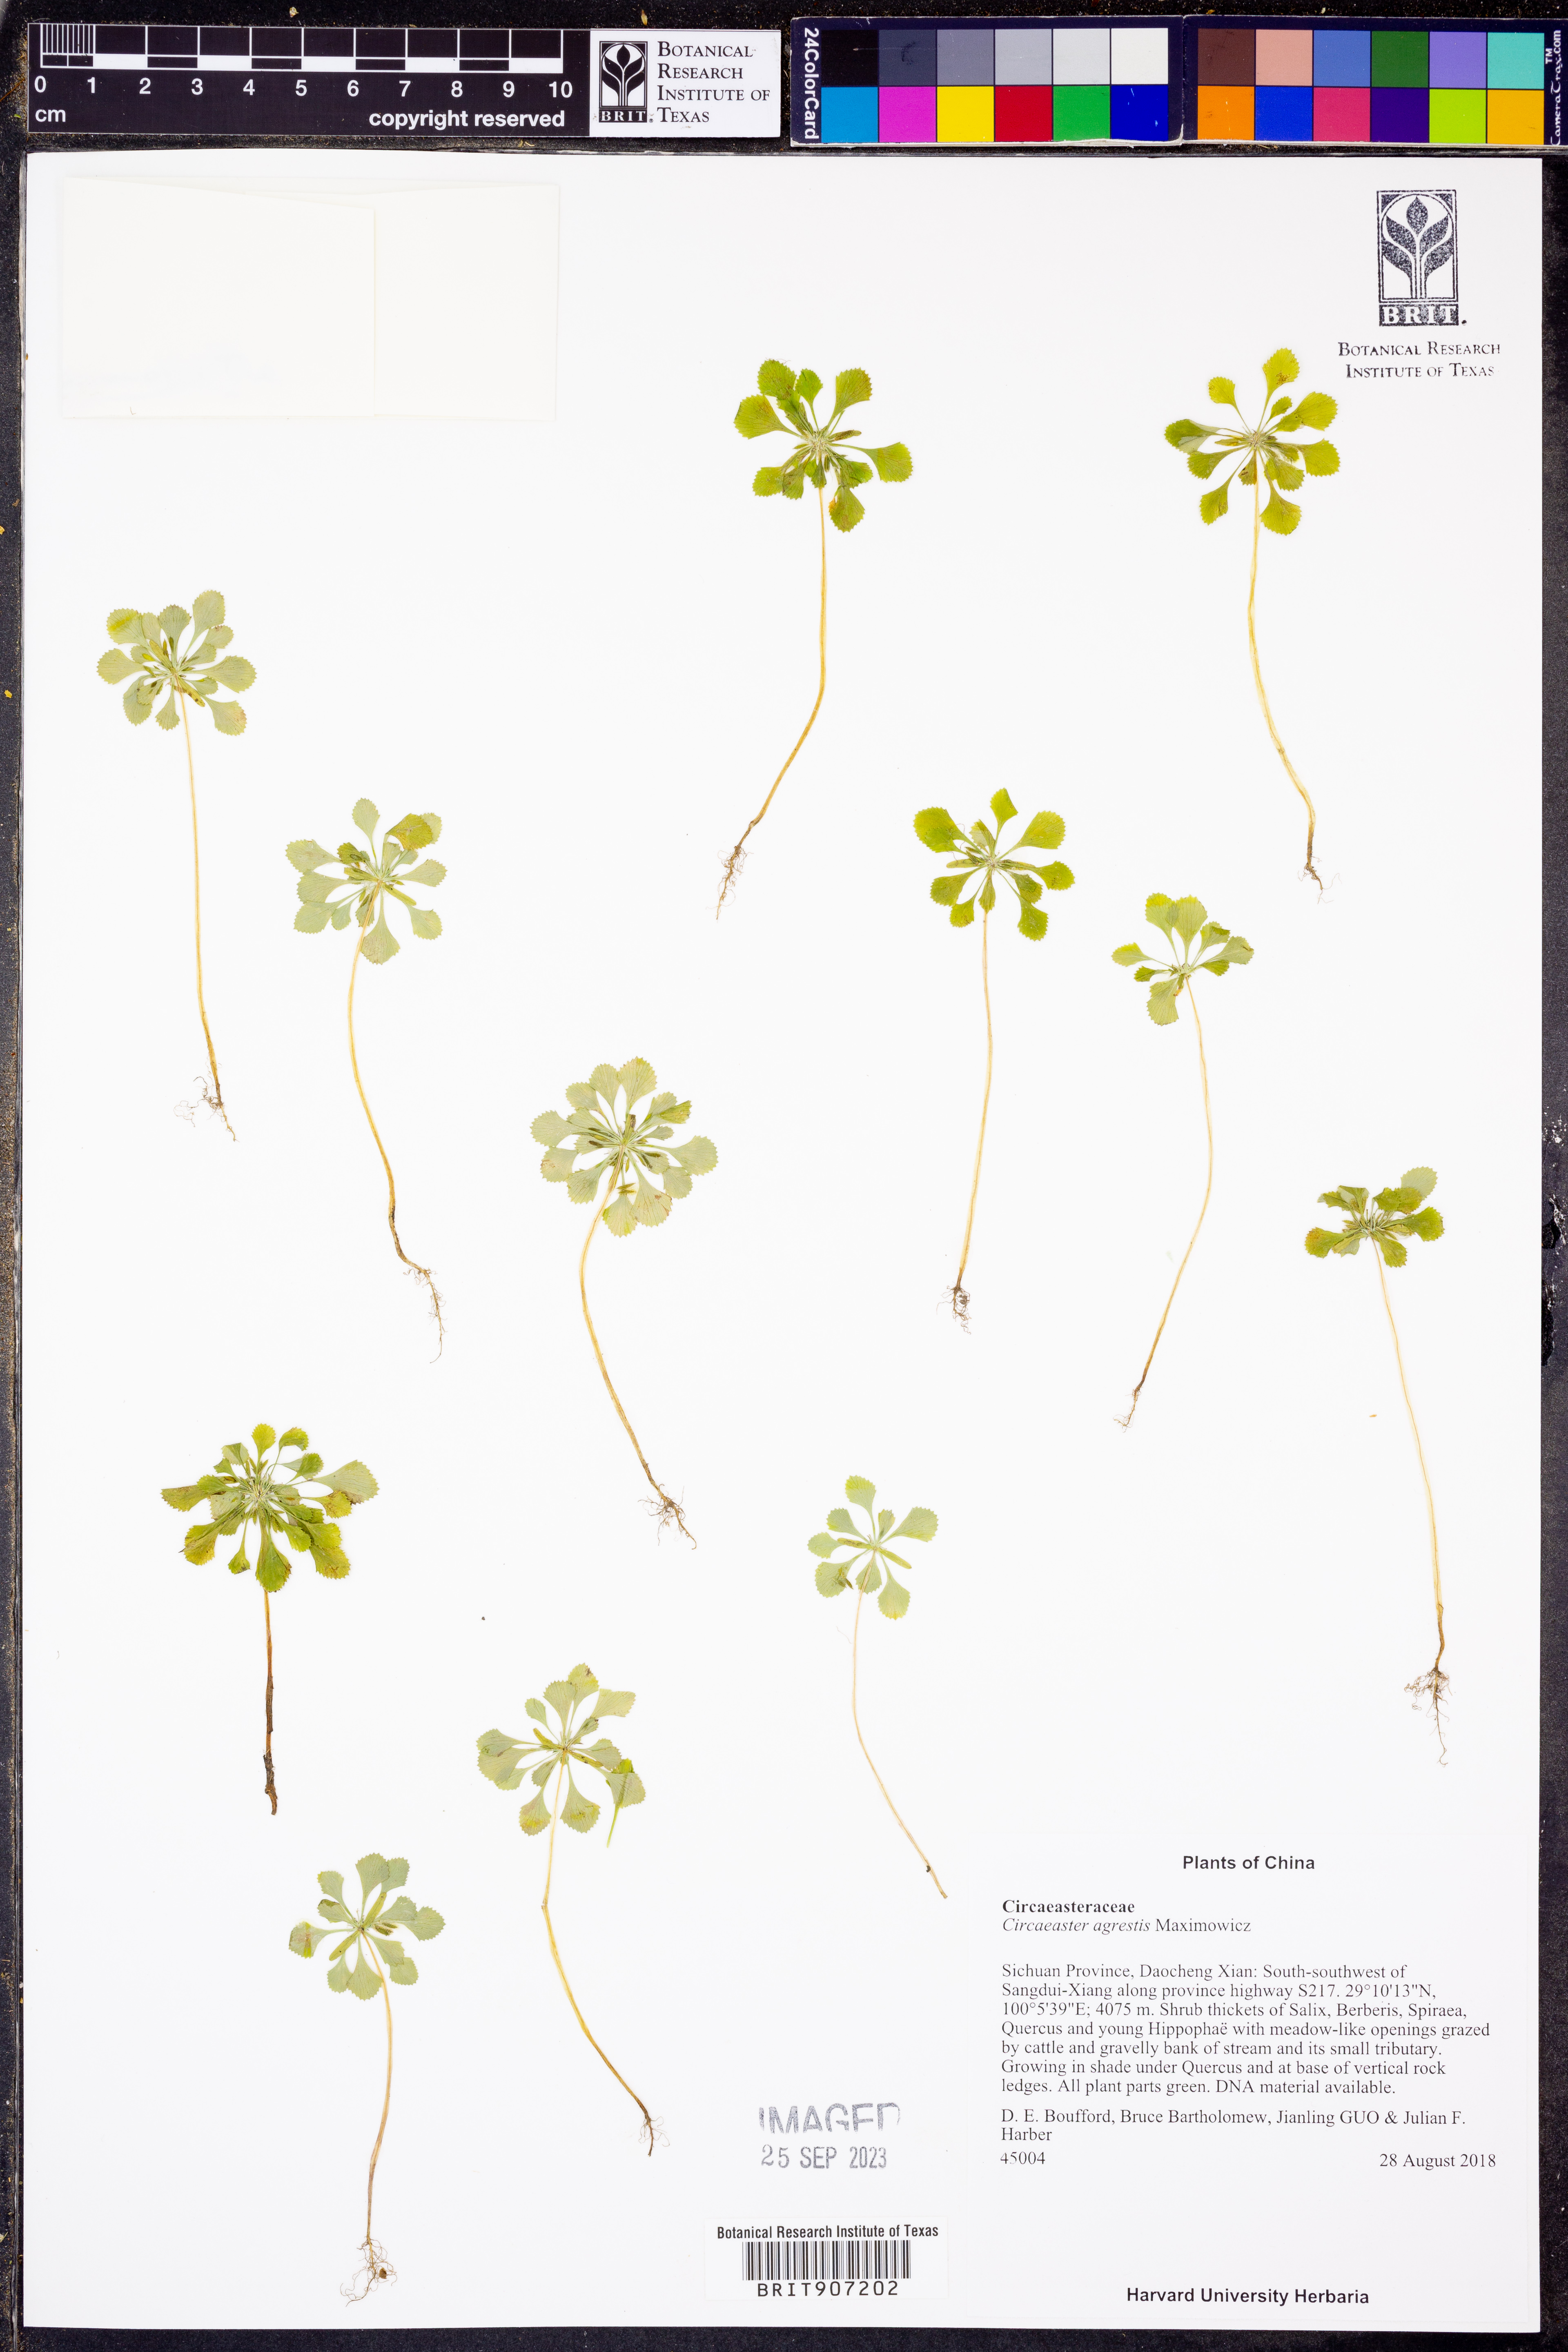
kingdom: Plantae
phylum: Tracheophyta
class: Magnoliopsida
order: Ranunculales
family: Circaeasteraceae
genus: Circaeaster
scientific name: Circaeaster agrestis
